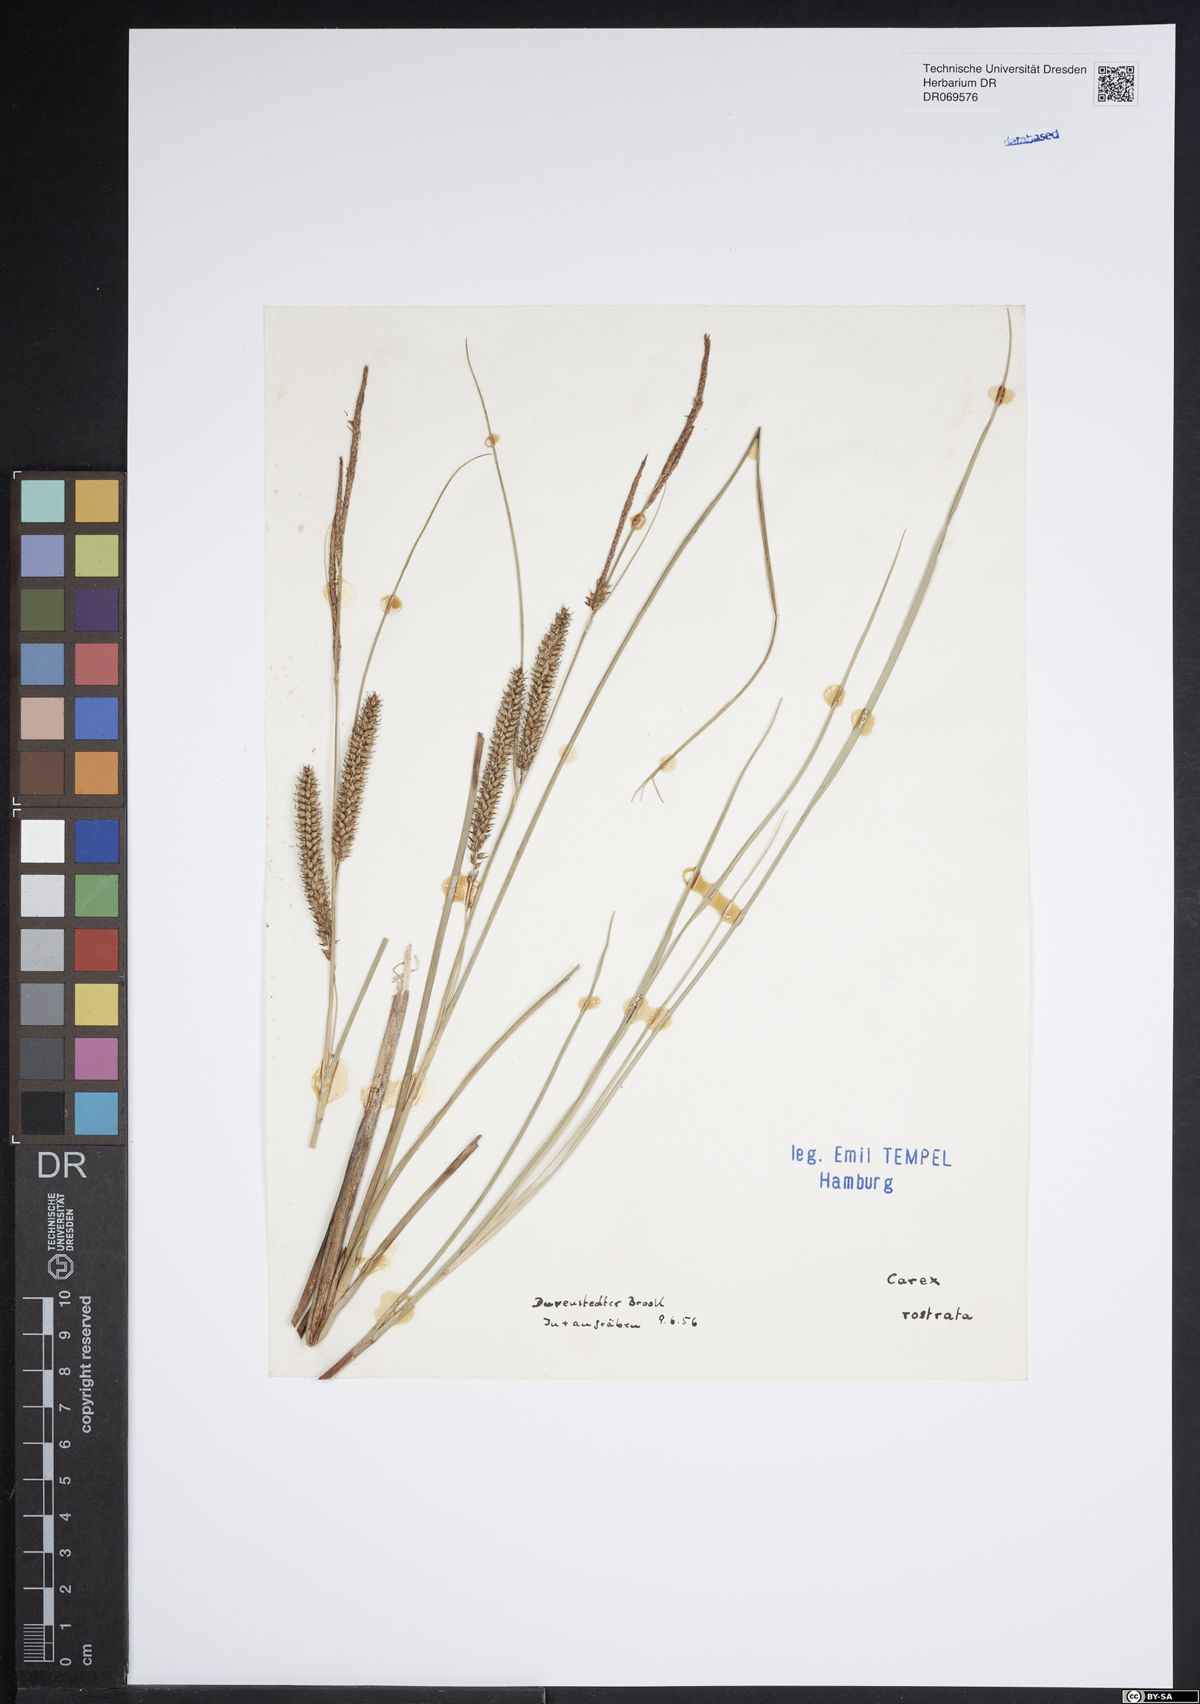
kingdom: Plantae
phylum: Tracheophyta
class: Liliopsida
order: Poales
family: Cyperaceae
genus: Carex
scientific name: Carex rostrata
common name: Bottle sedge
